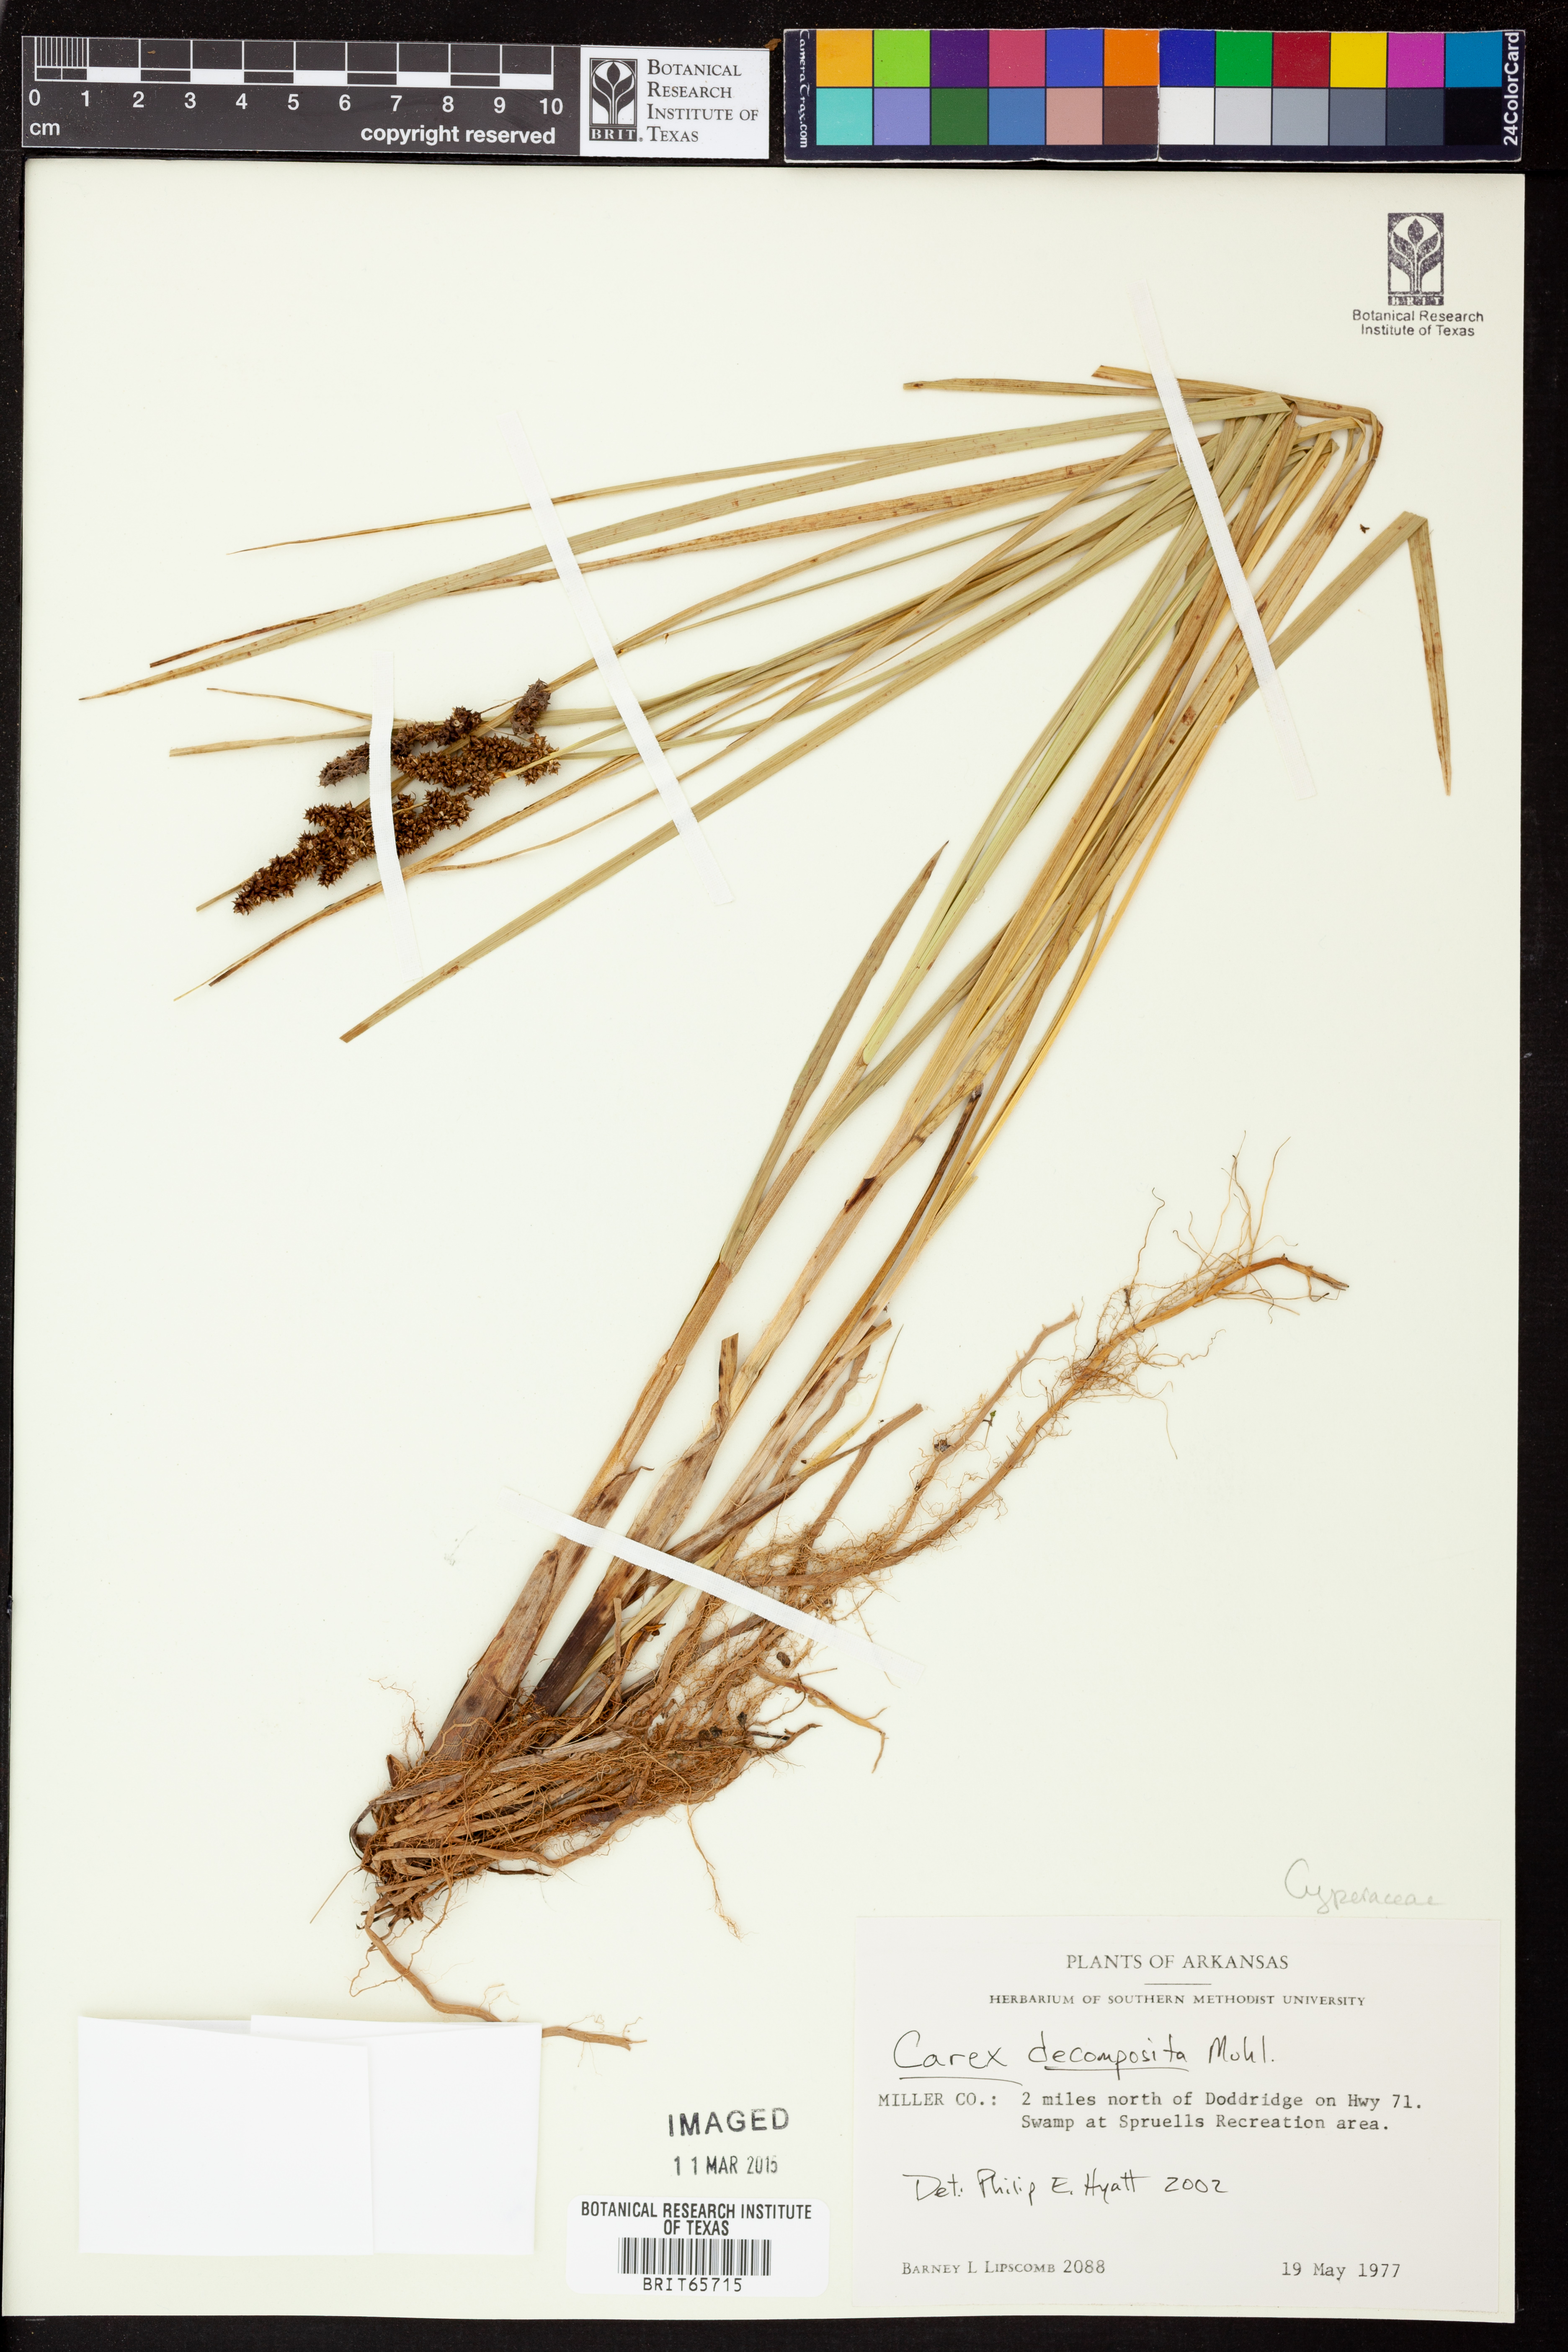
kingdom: Plantae
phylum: Tracheophyta
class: Liliopsida
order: Poales
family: Cyperaceae
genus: Carex
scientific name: Carex decomposita
